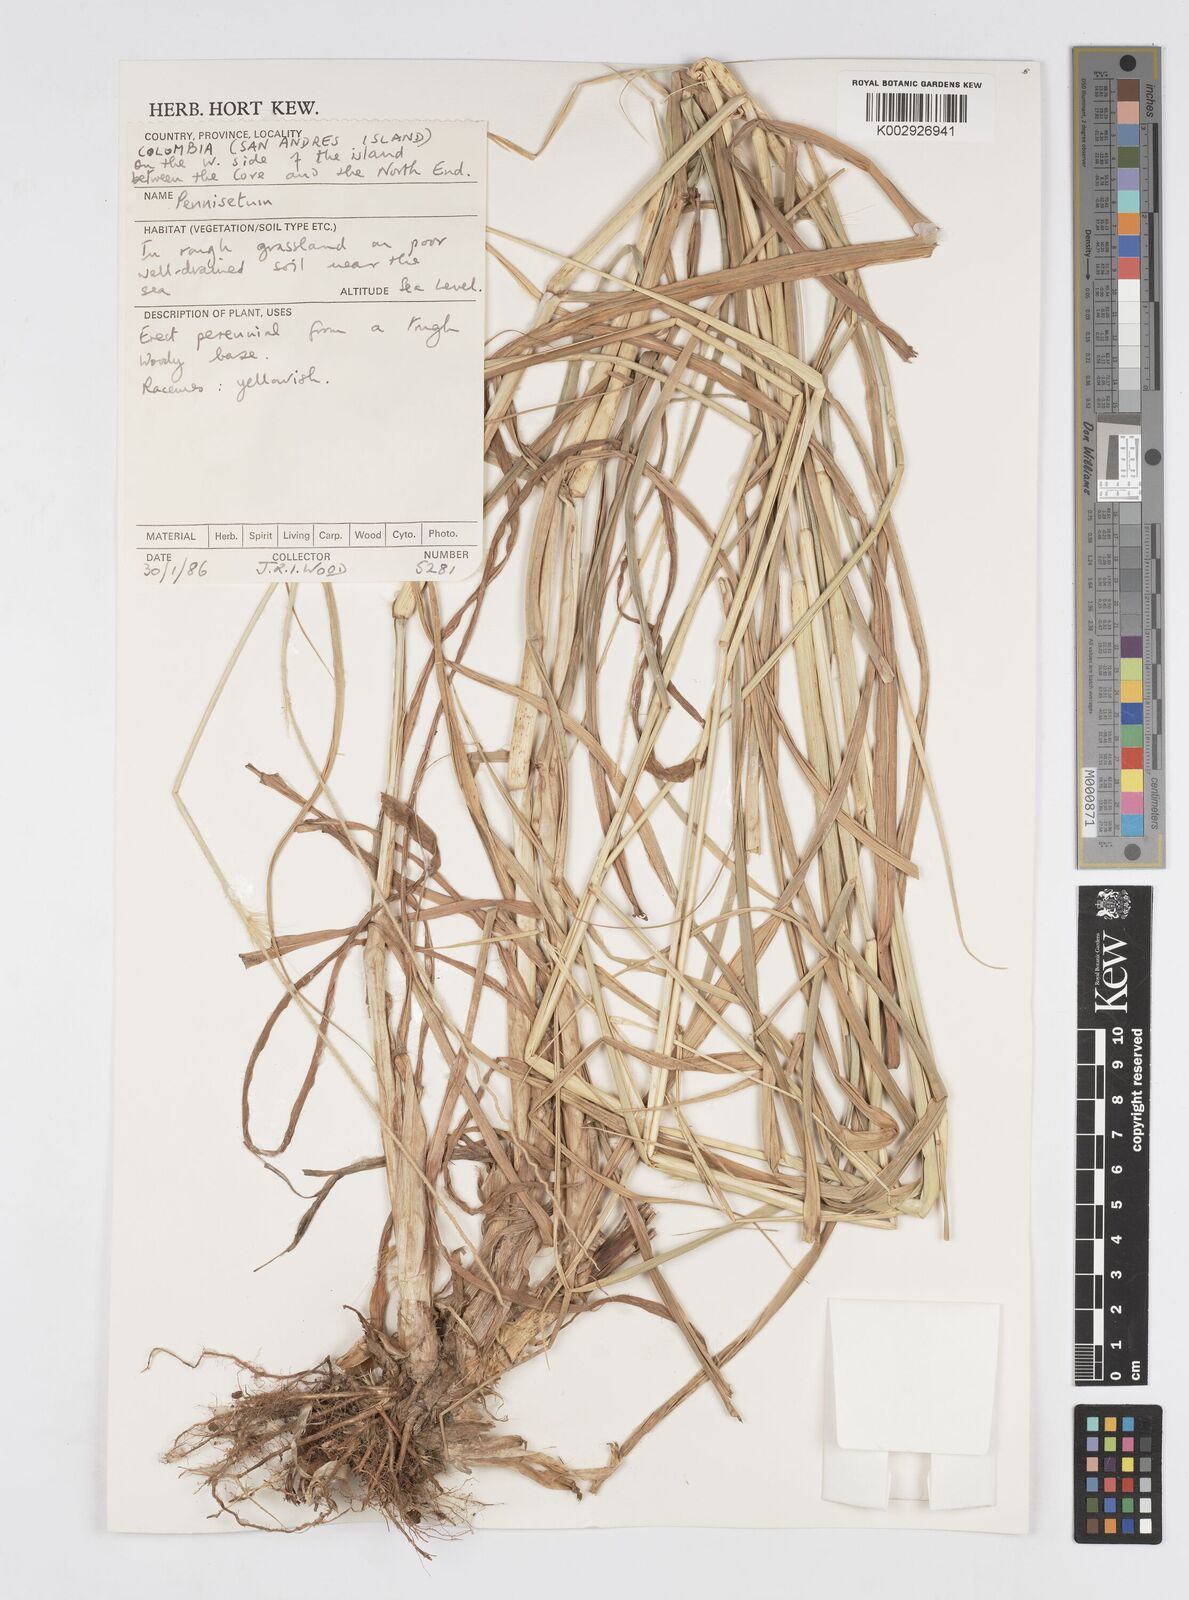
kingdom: Plantae
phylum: Tracheophyta
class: Liliopsida
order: Poales
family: Poaceae
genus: Cenchrus
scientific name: Cenchrus purpureus
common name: Elephant grass
